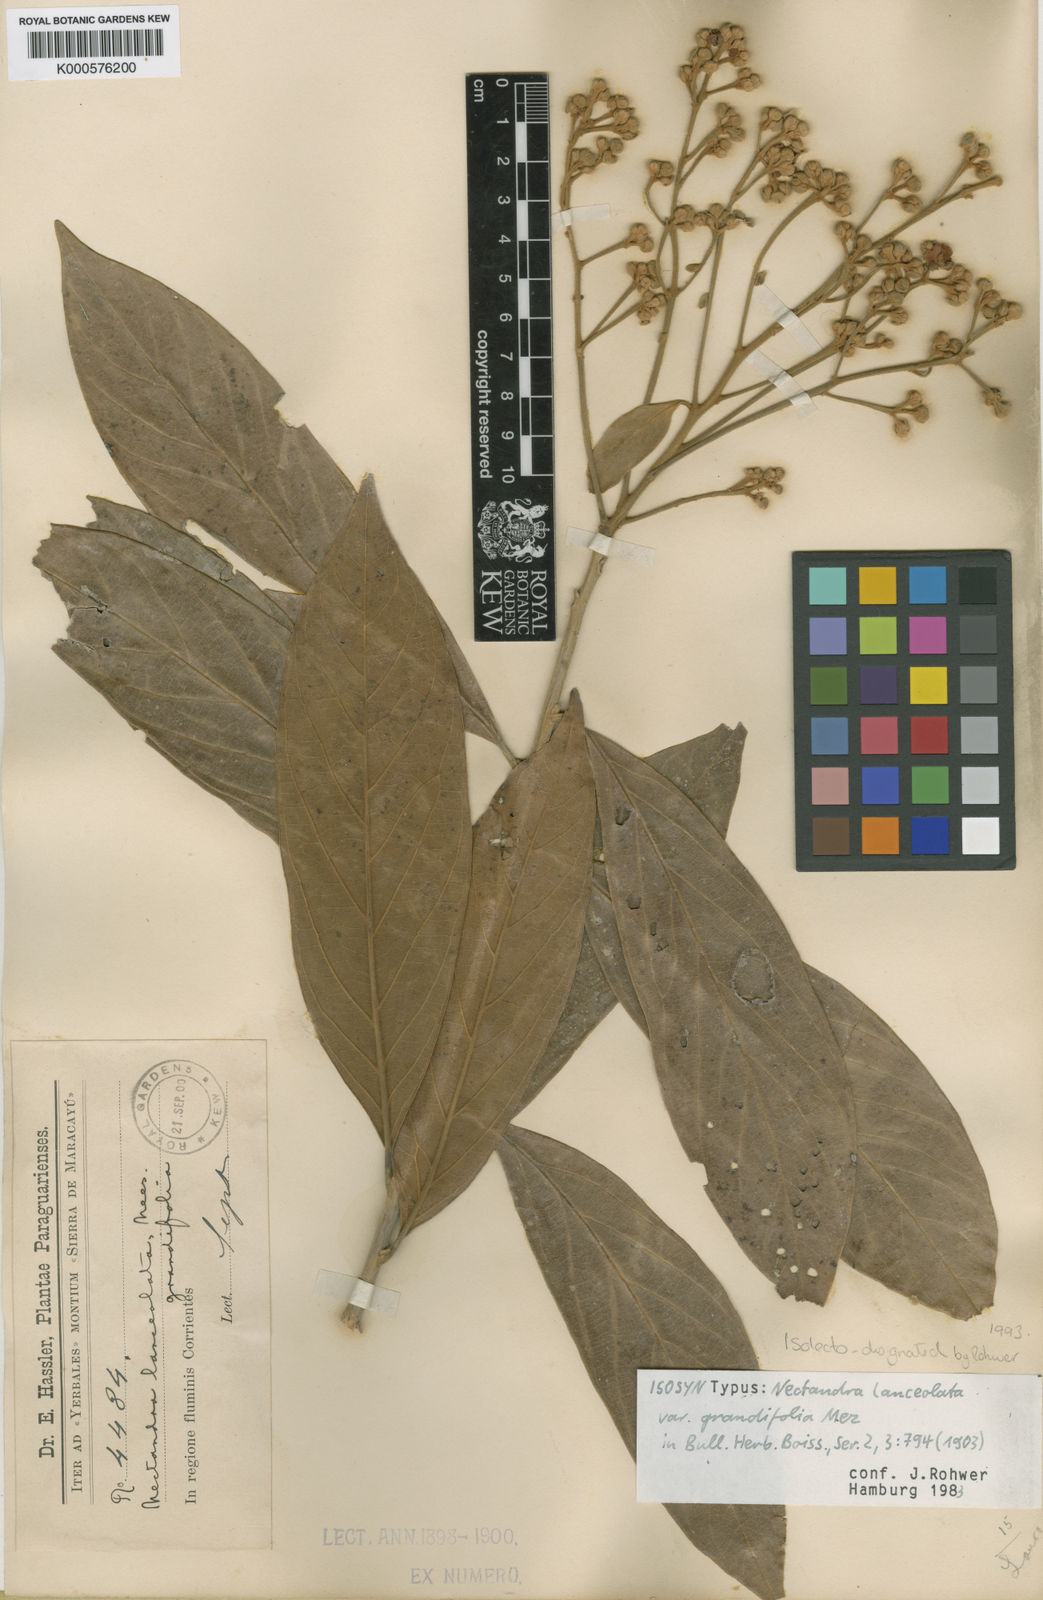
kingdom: Plantae
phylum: Tracheophyta
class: Magnoliopsida
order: Laurales
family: Lauraceae
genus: Nectandra
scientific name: Nectandra lanceolata
